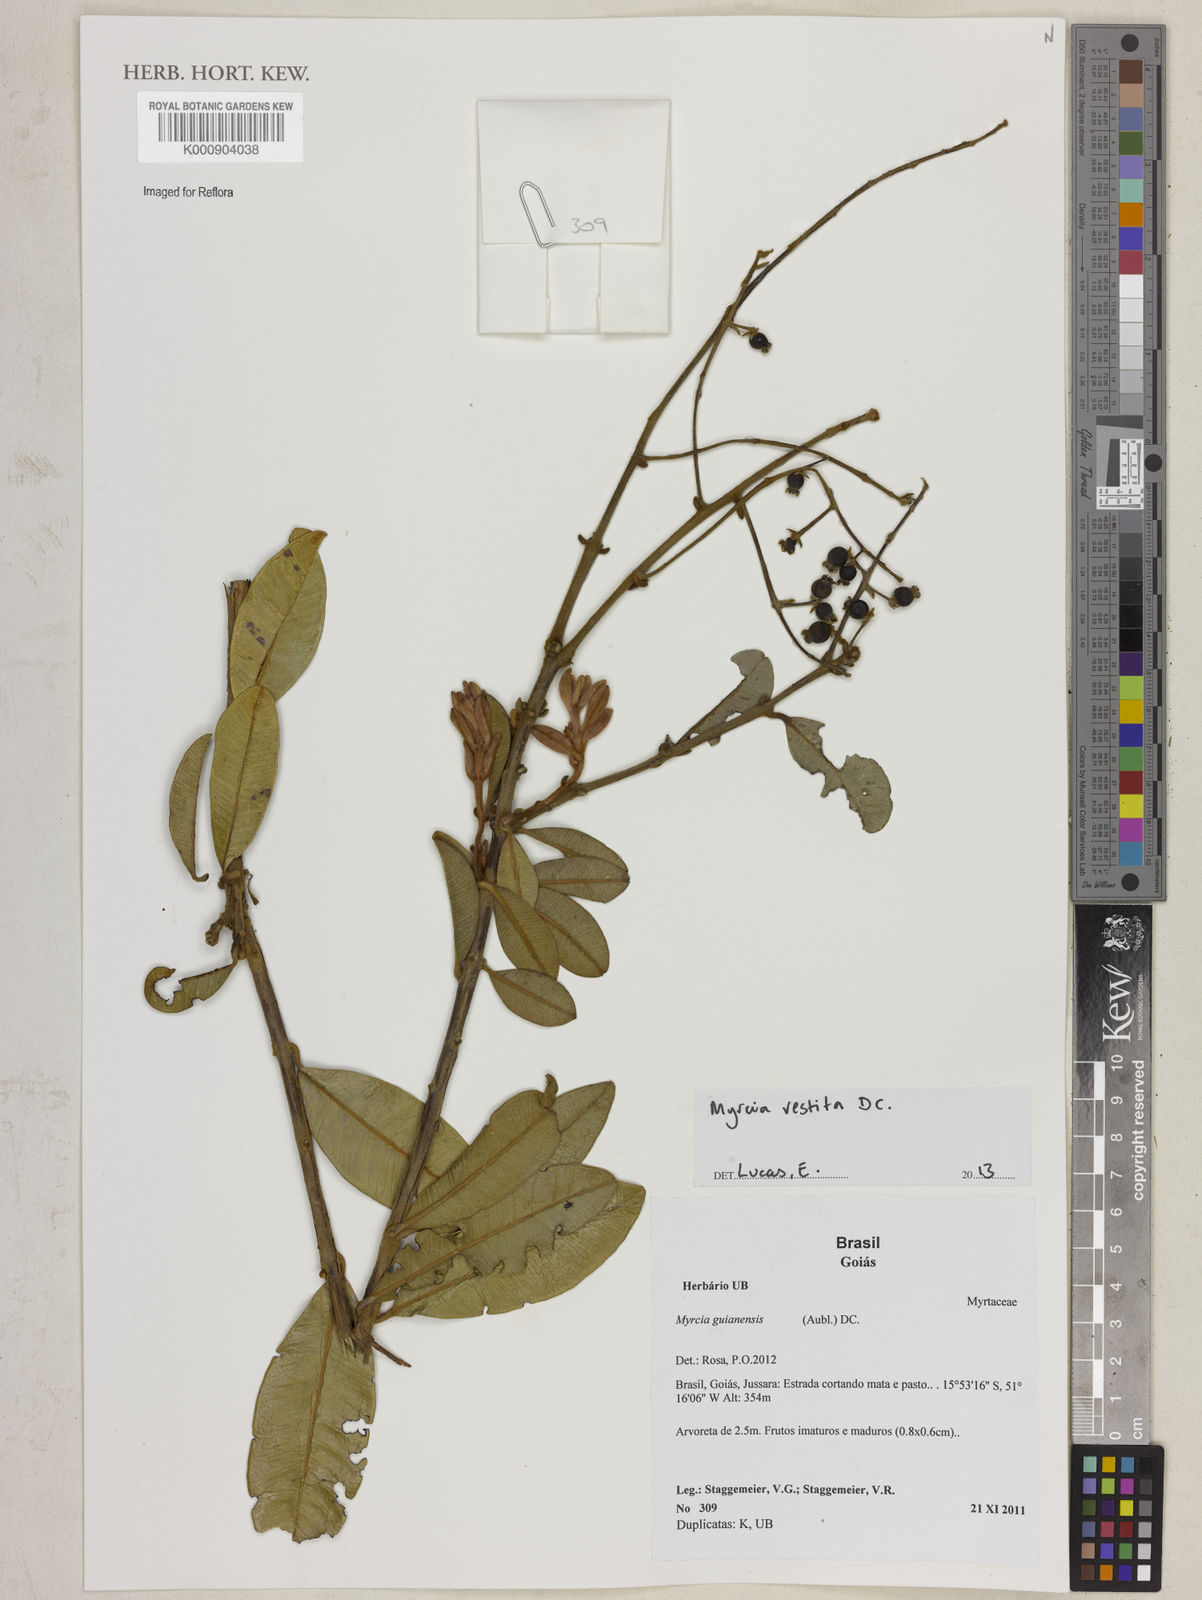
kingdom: Plantae
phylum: Tracheophyta
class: Magnoliopsida
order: Myrtales
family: Myrtaceae
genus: Myrcia
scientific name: Myrcia vestita
